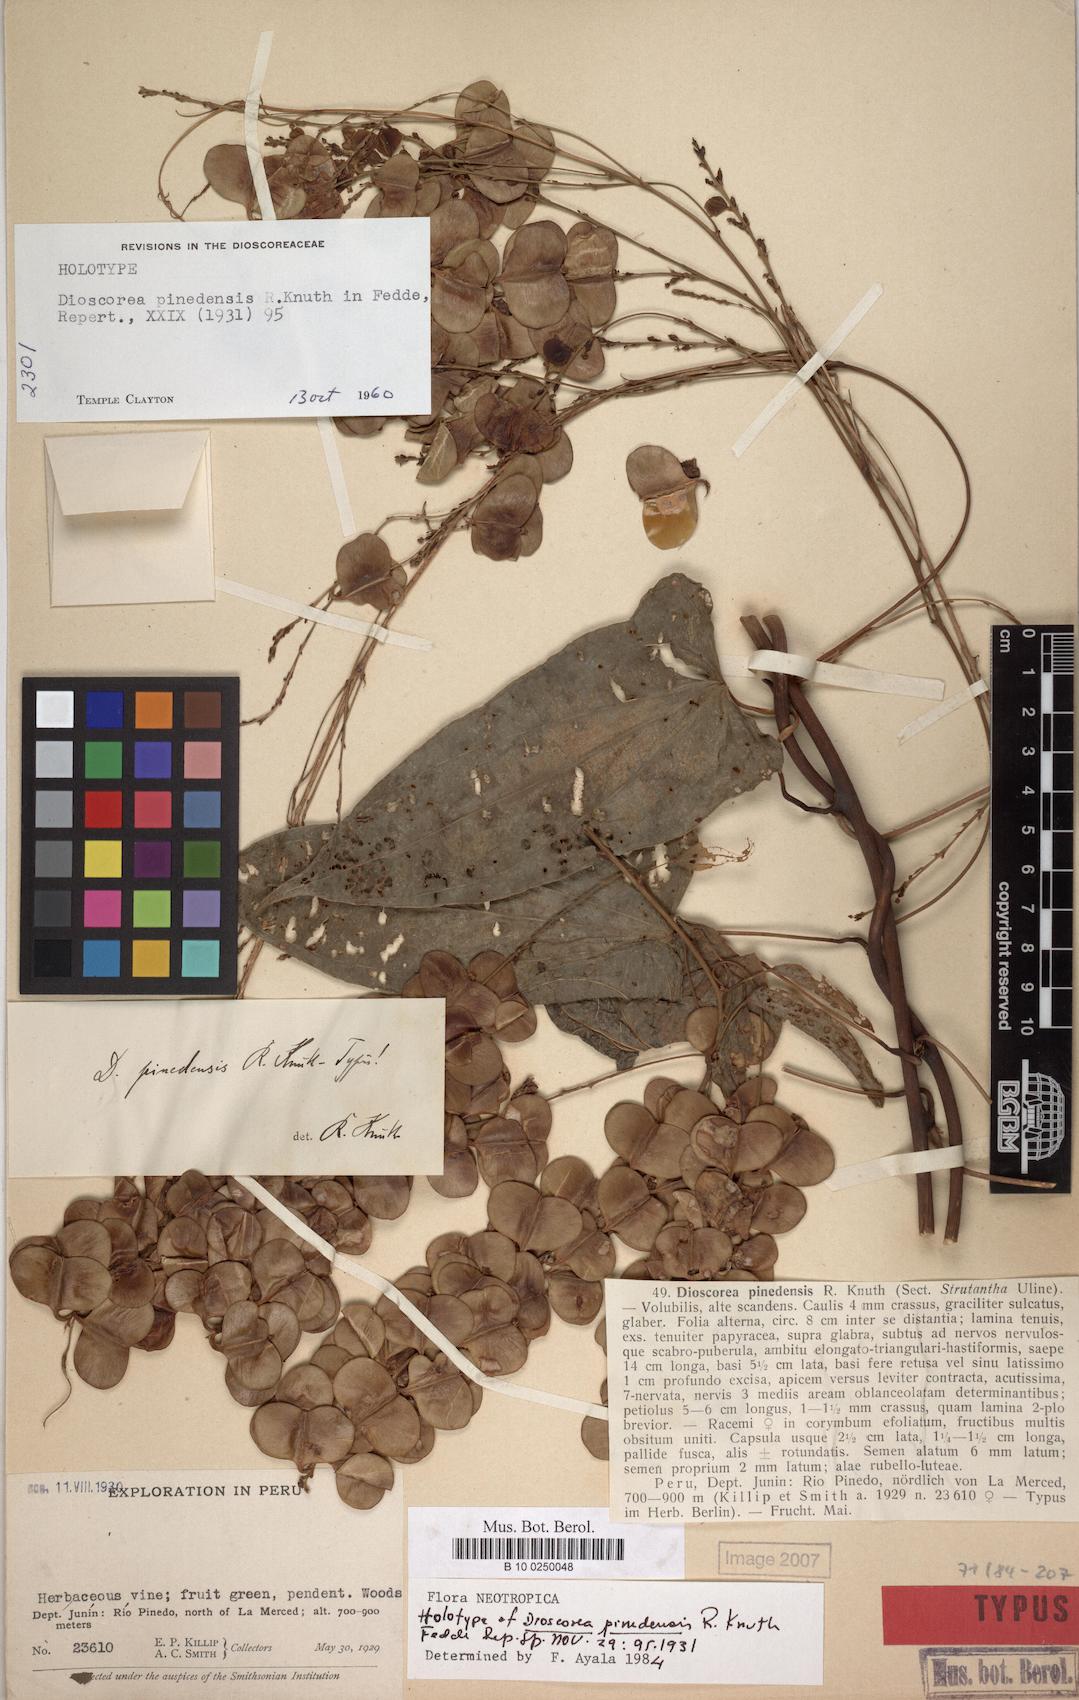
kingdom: Plantae
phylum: Tracheophyta
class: Liliopsida
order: Dioscoreales
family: Dioscoreaceae
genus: Dioscorea
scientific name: Dioscorea pinedensis
